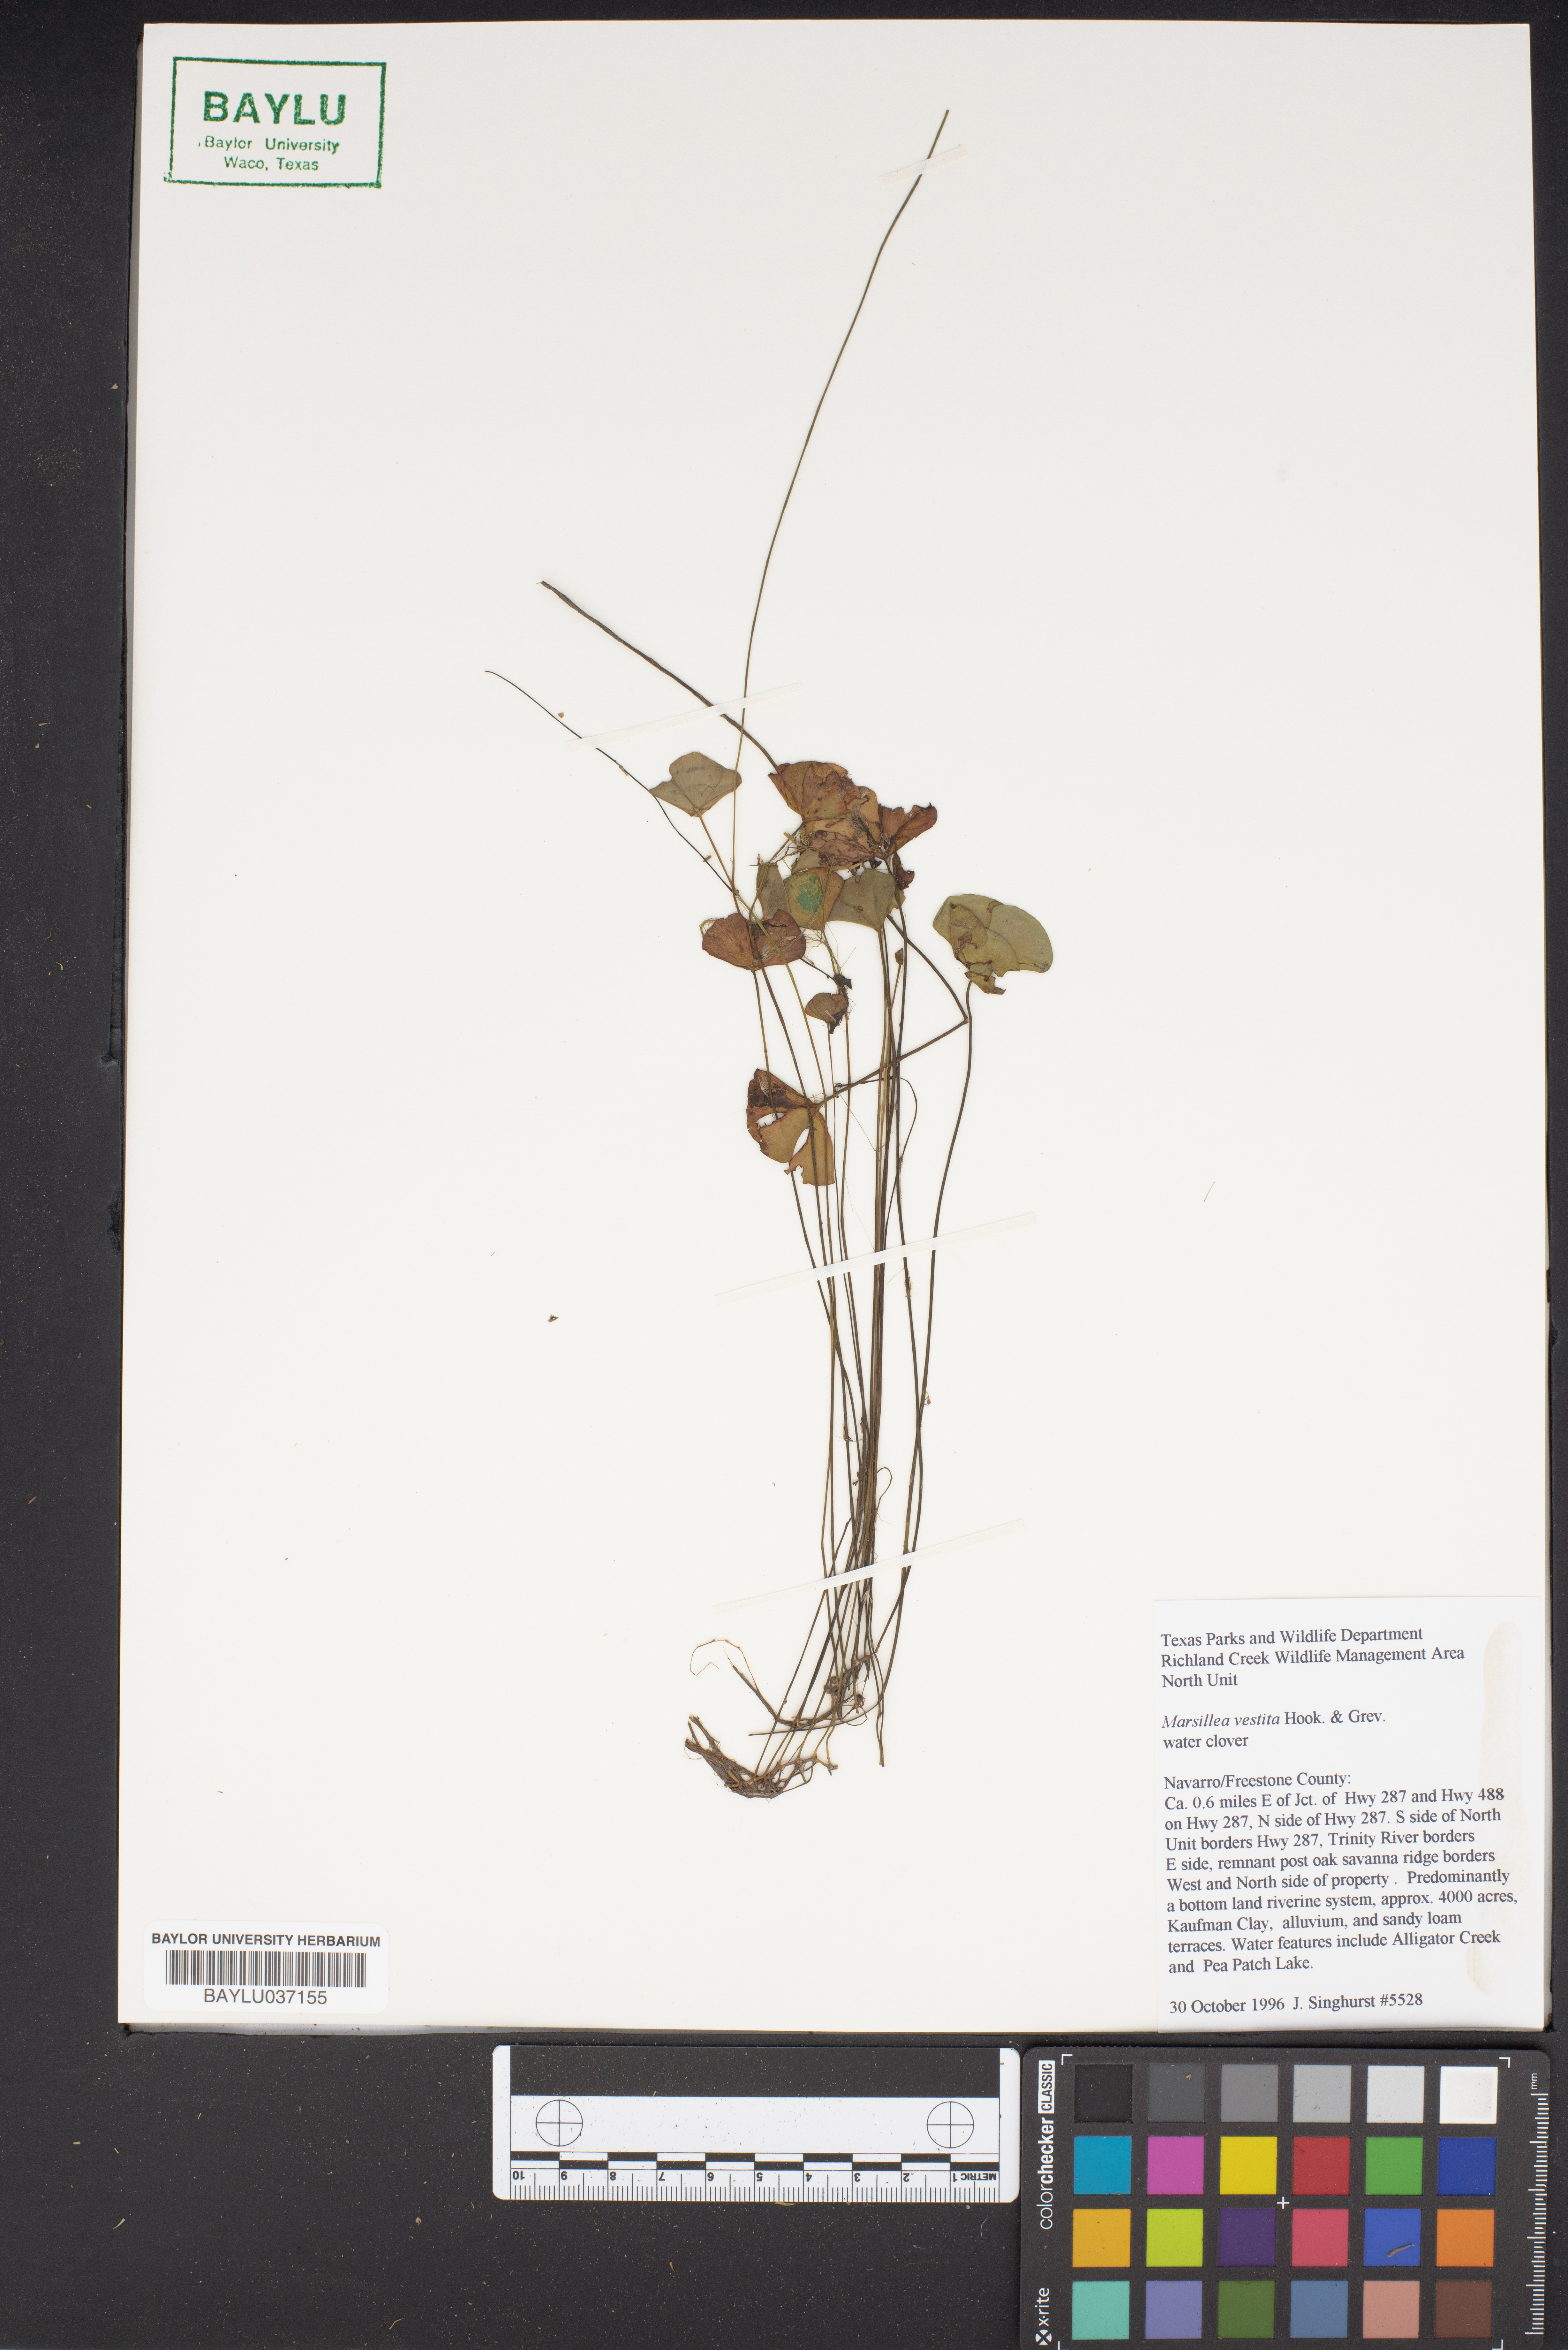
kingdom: Plantae
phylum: Tracheophyta
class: Polypodiopsida
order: Salviniales
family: Marsileaceae
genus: Marsilea
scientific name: Marsilea vestita
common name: Hooked-pepperwort
